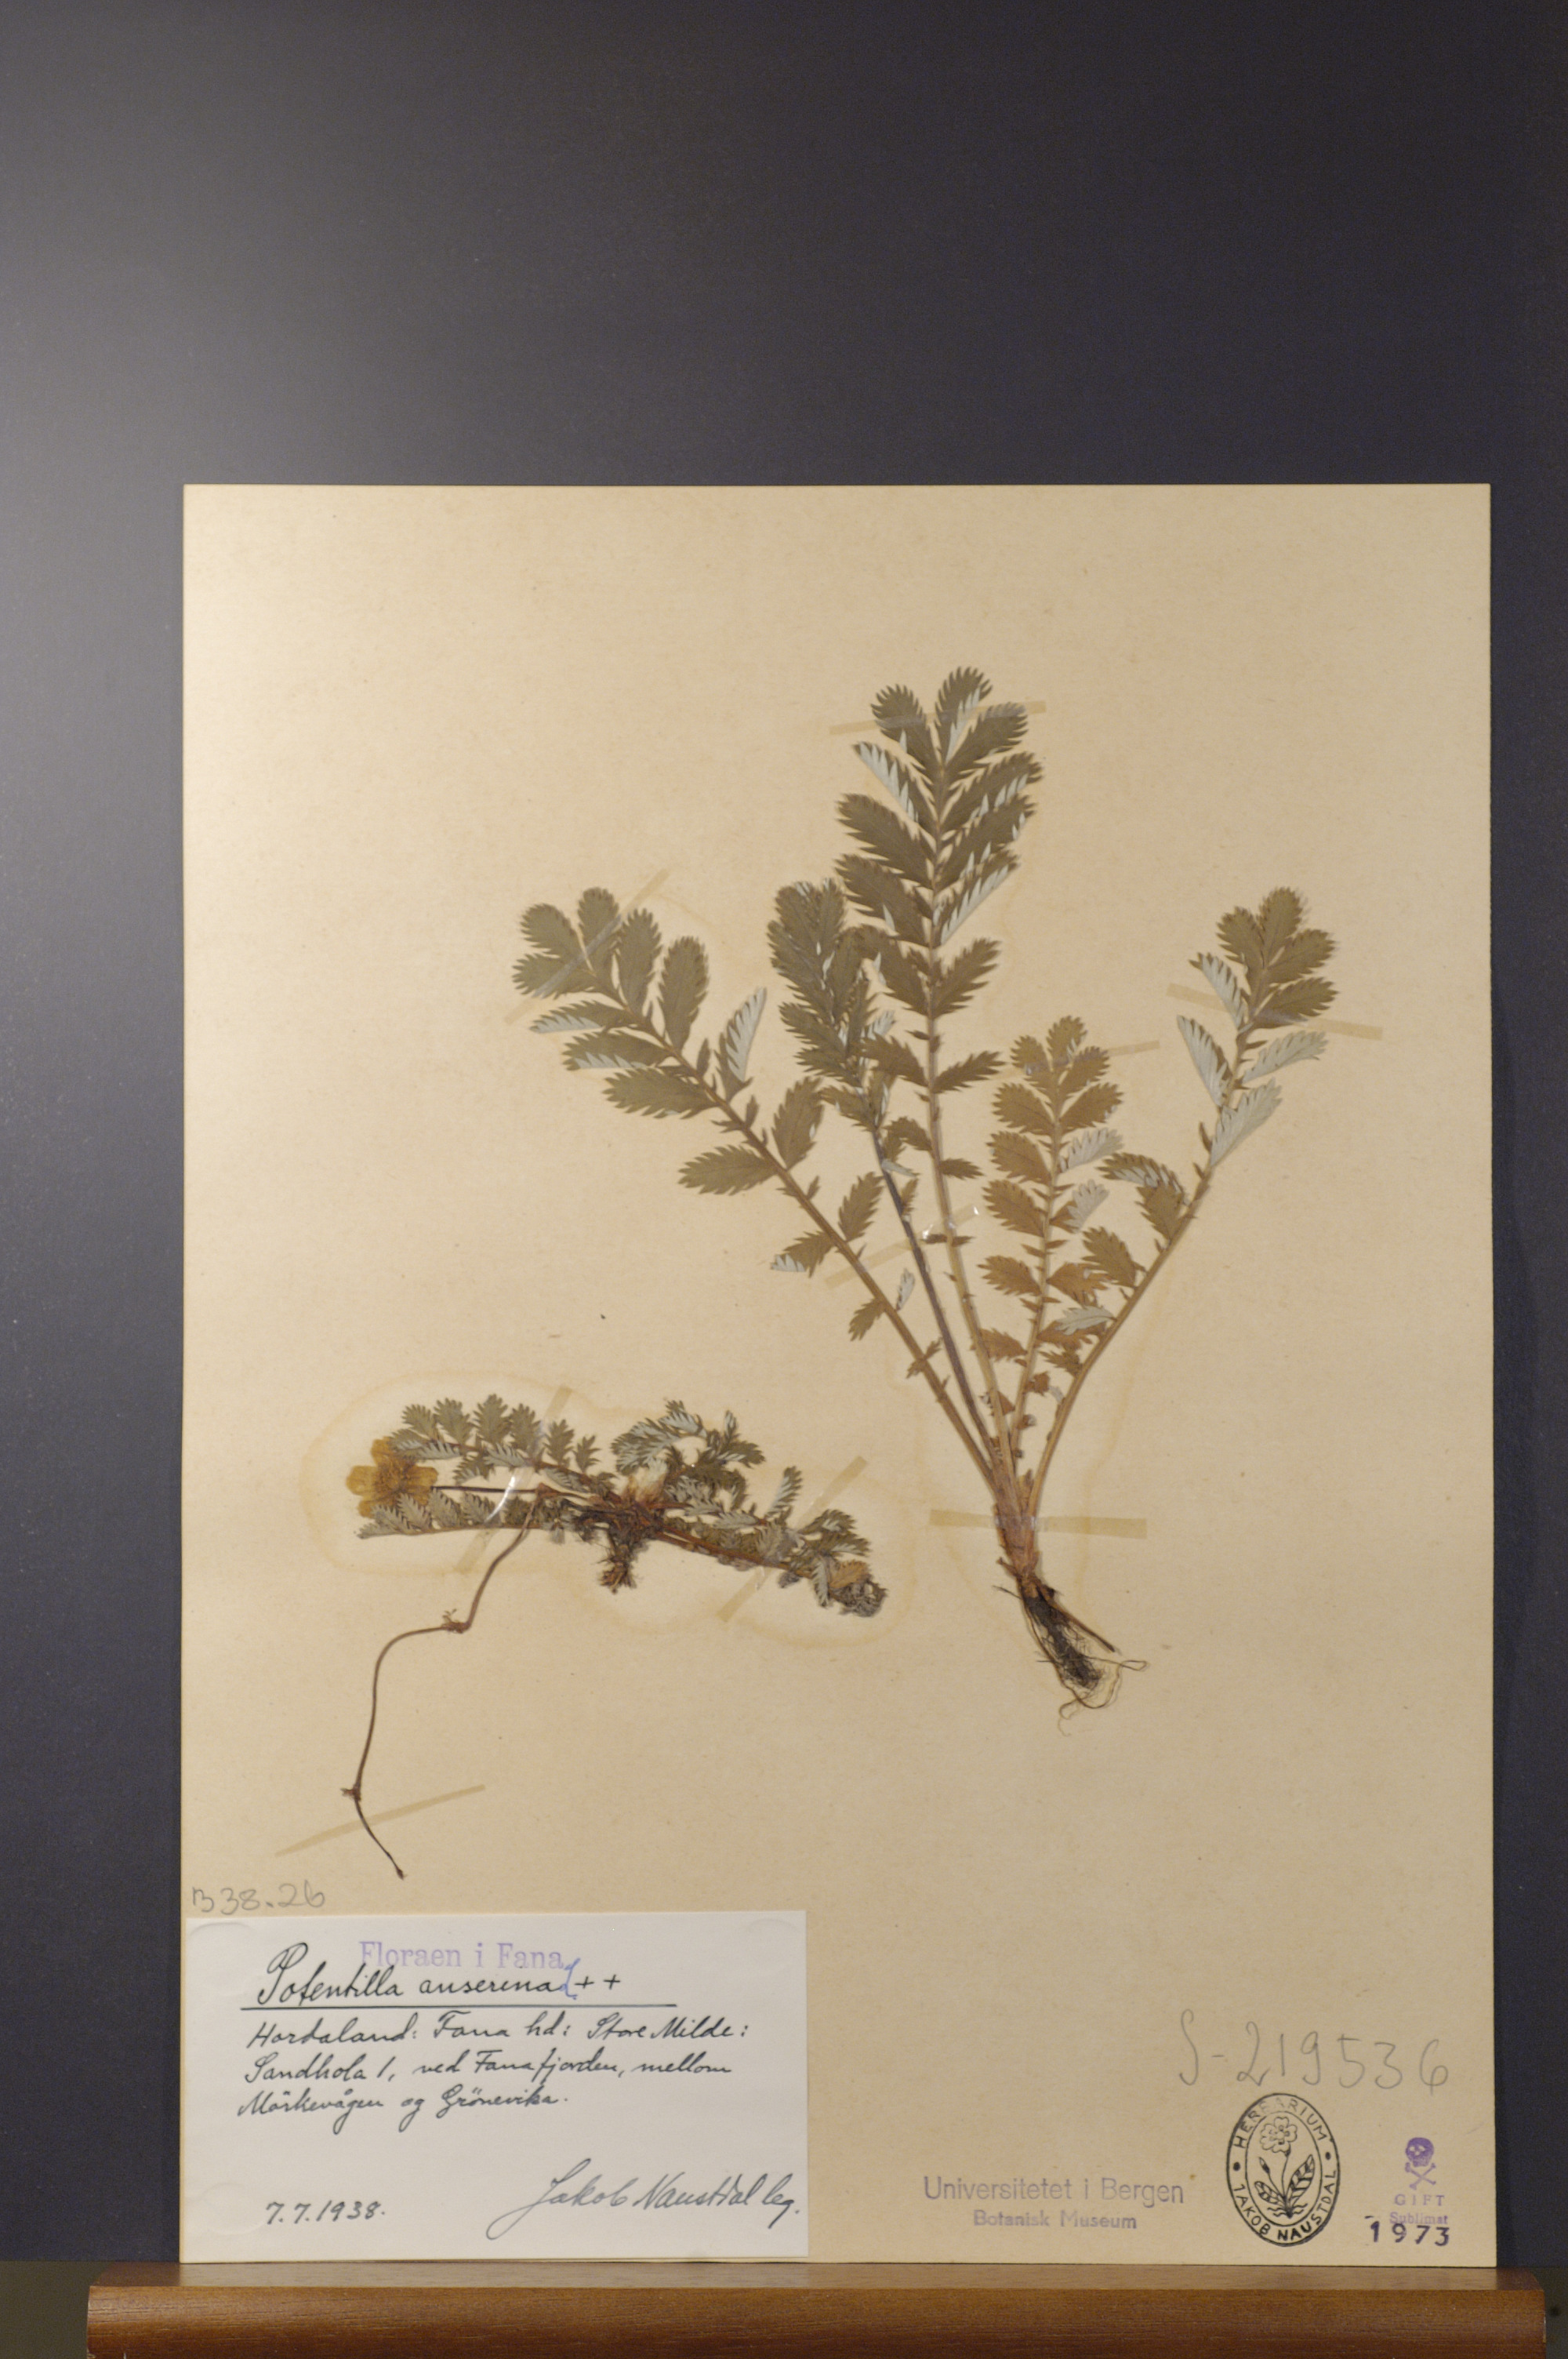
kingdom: Plantae
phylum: Tracheophyta
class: Magnoliopsida
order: Rosales
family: Rosaceae
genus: Argentina
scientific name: Argentina anserina
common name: Common silverweed
